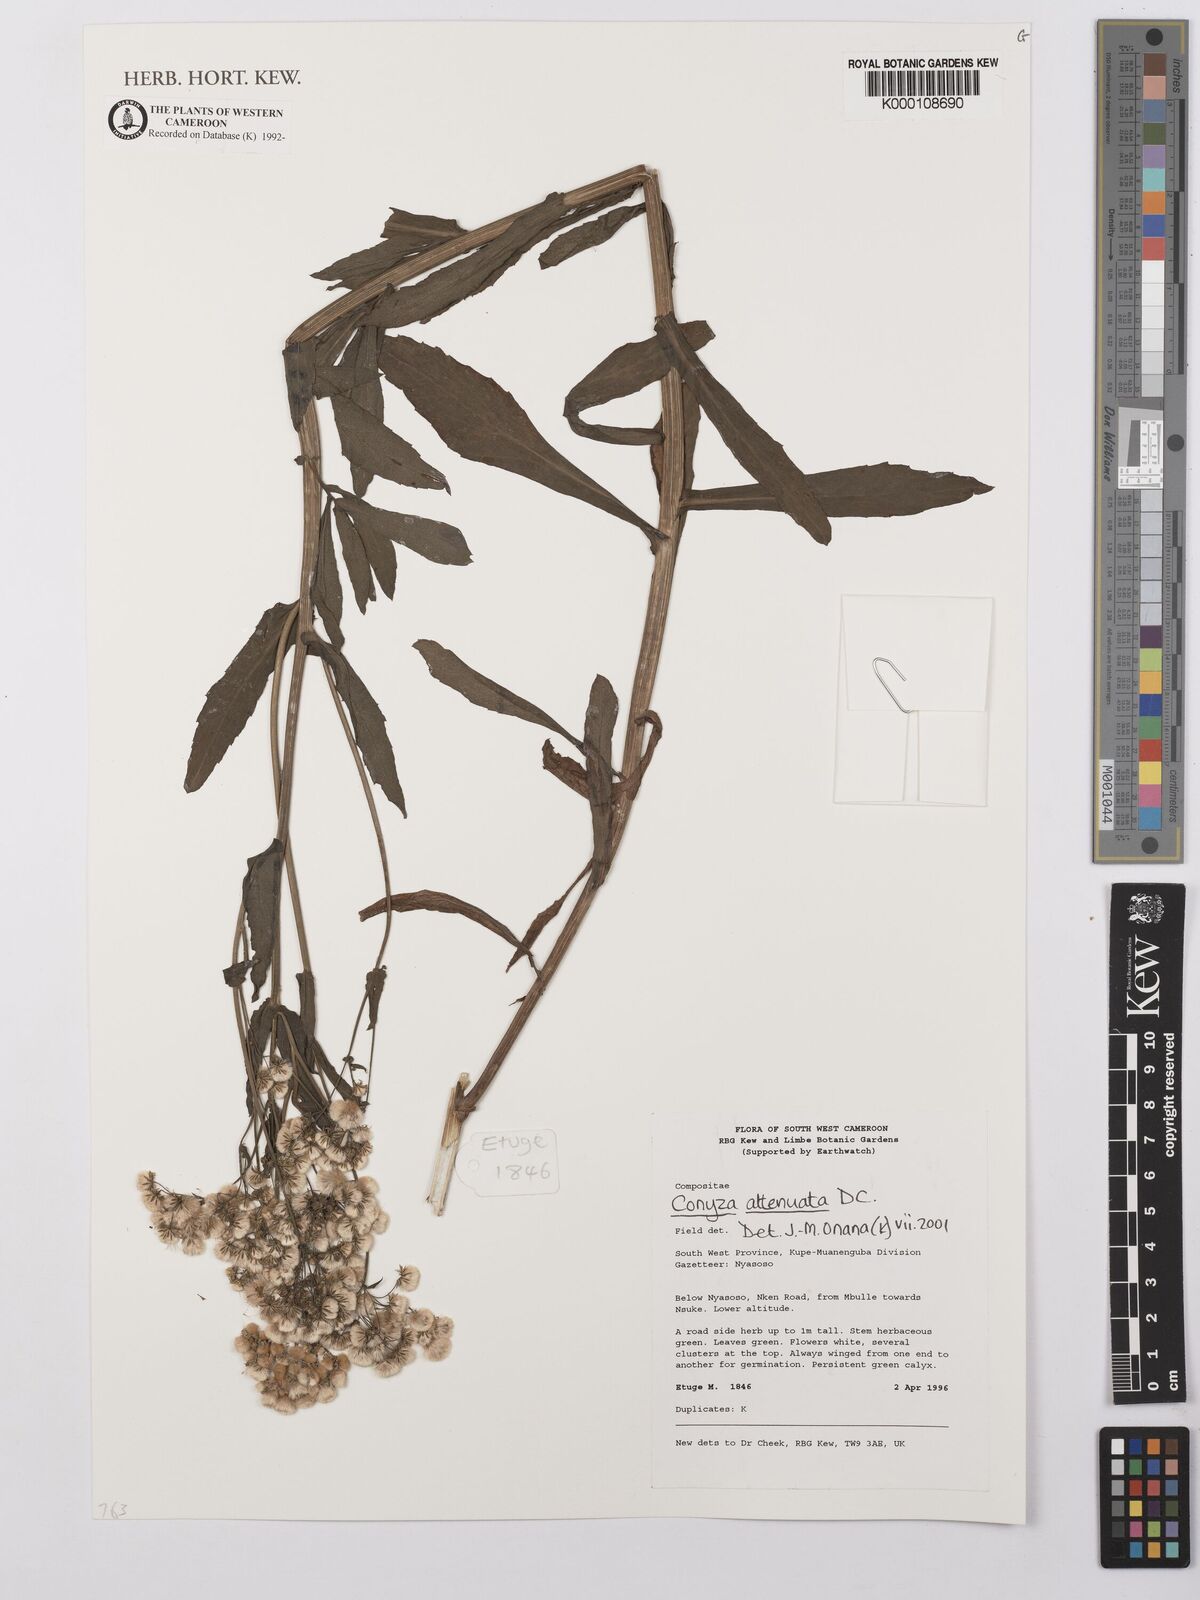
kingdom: Plantae
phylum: Tracheophyta
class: Magnoliopsida
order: Asterales
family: Asteraceae
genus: Nidorella
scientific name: Nidorella attenuata
